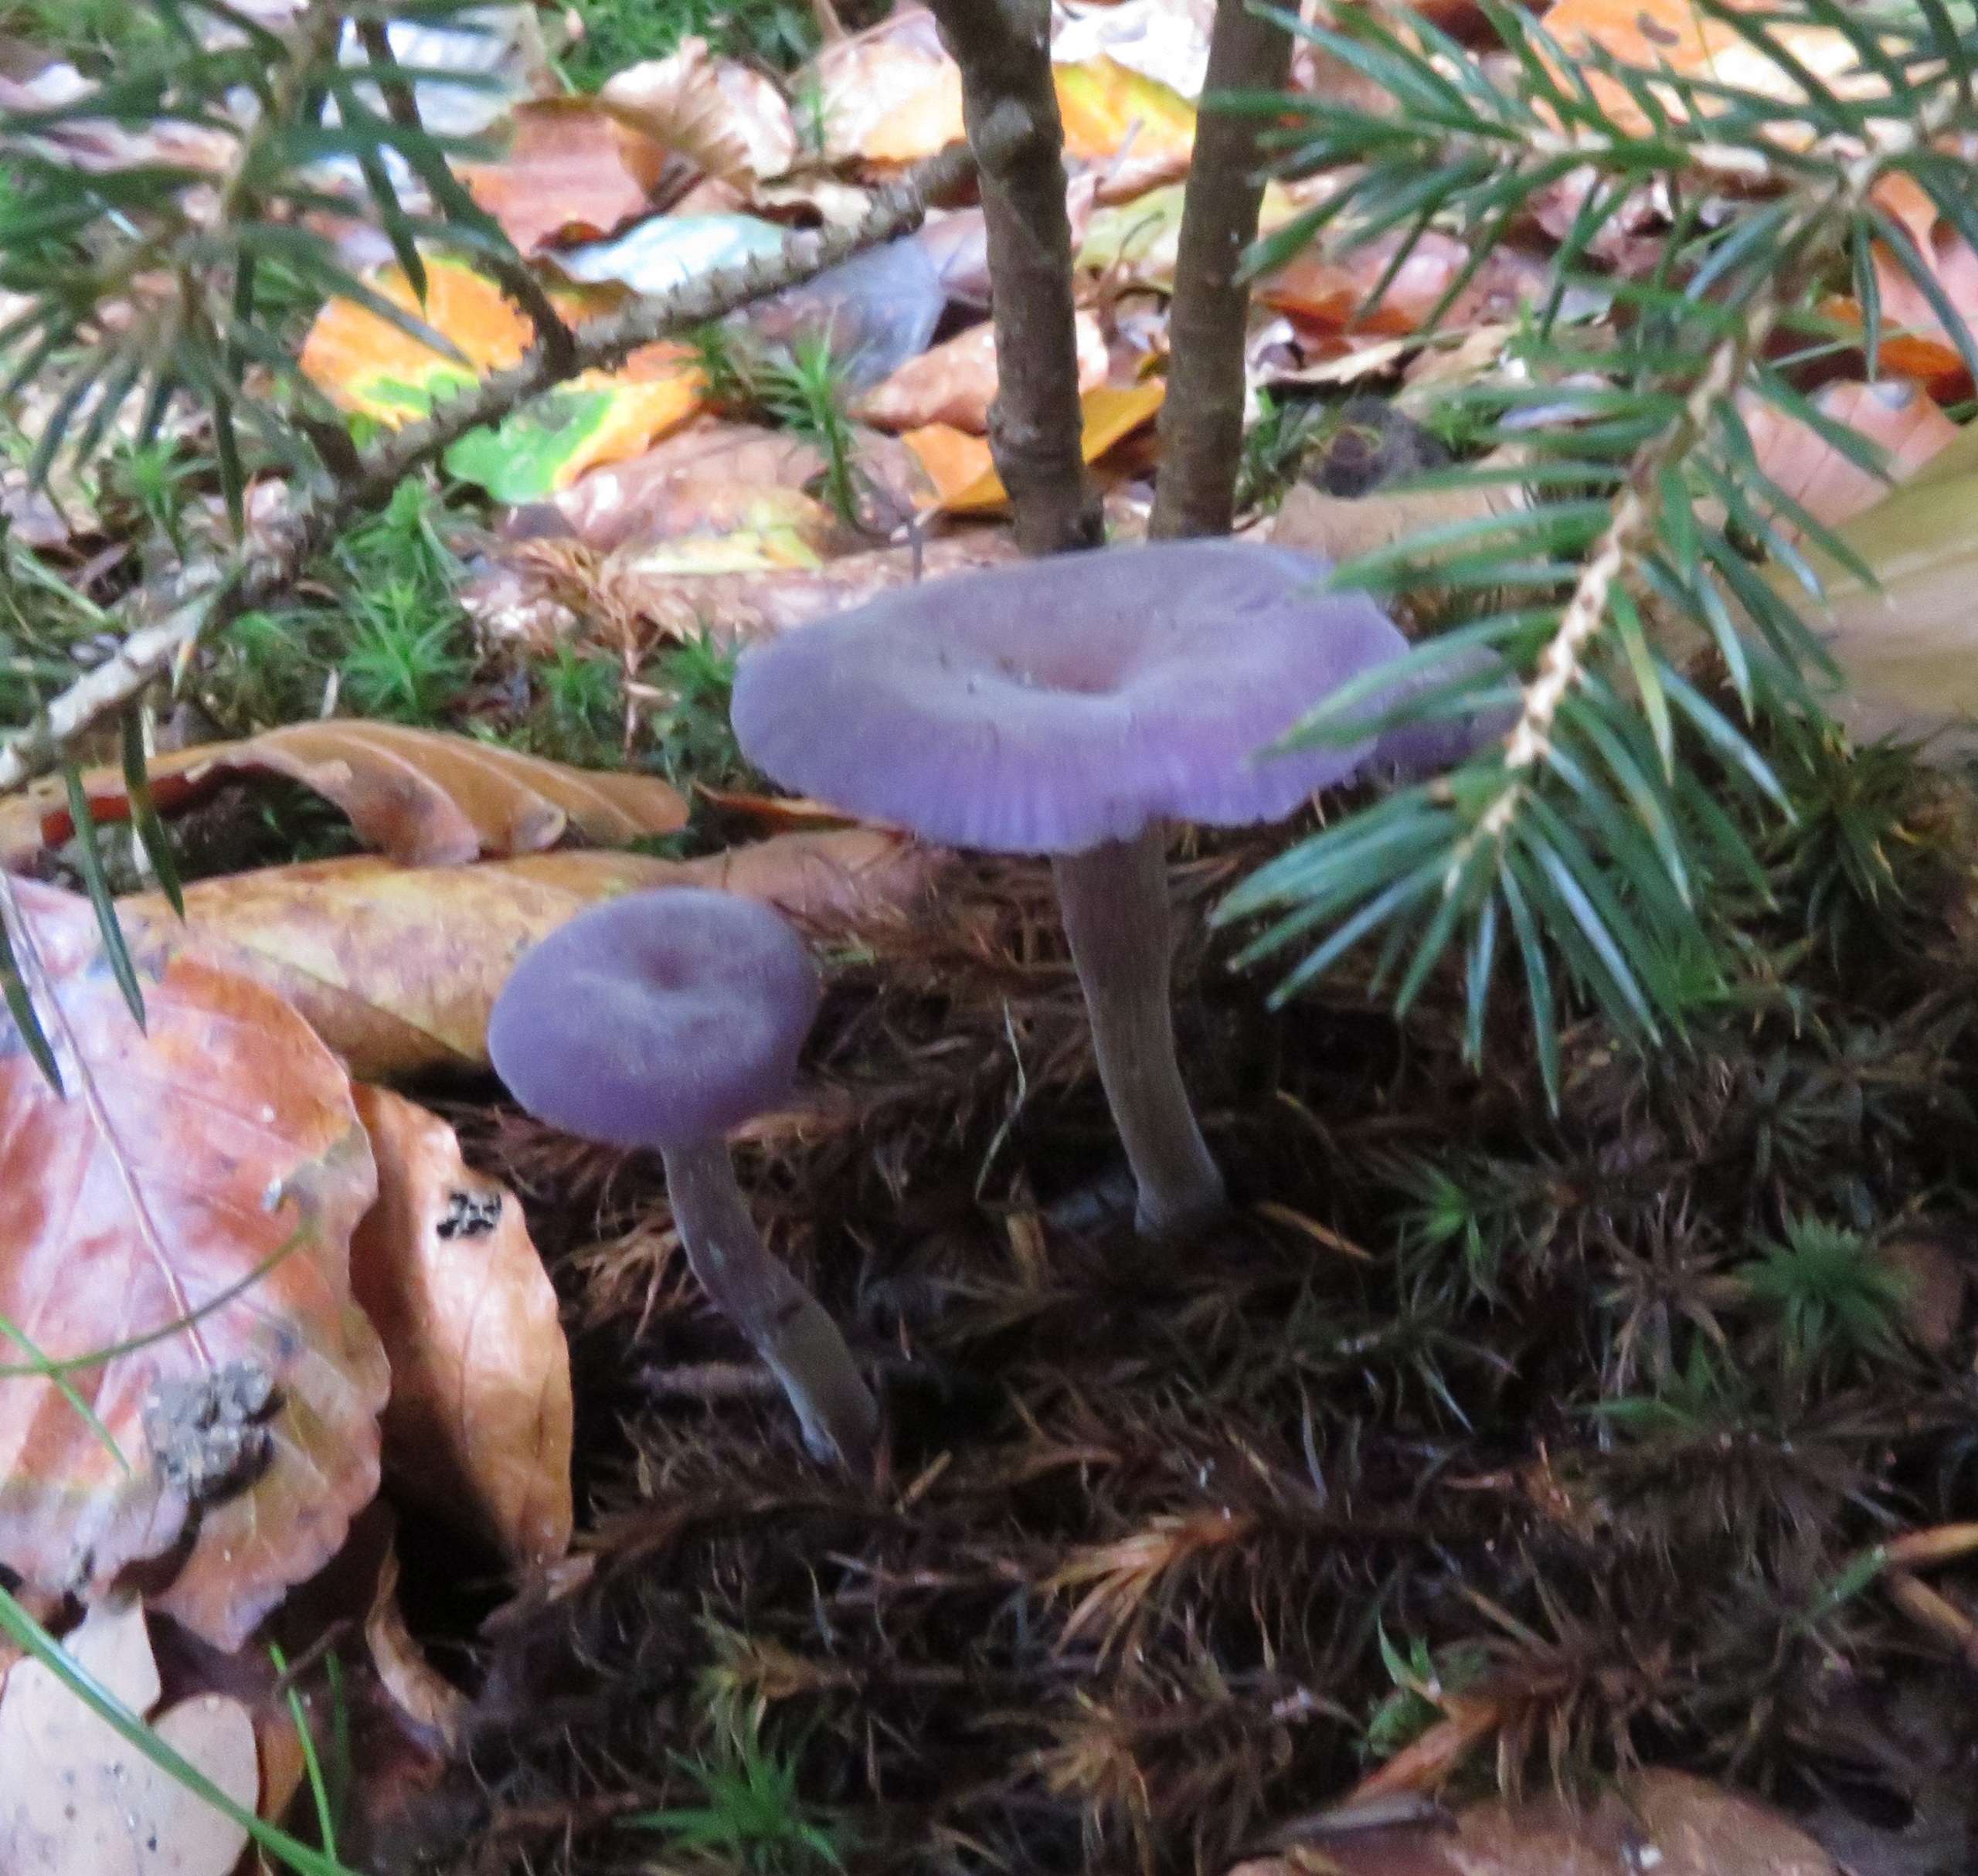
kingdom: Fungi
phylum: Basidiomycota
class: Agaricomycetes
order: Agaricales
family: Hydnangiaceae
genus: Laccaria
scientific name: Laccaria amethystina
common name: Violet ametysthat
